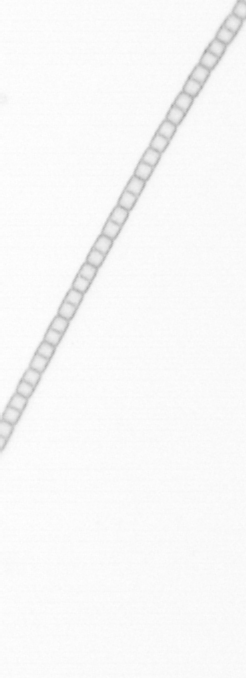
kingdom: Chromista
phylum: Ochrophyta
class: Bacillariophyceae
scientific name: Bacillariophyceae
